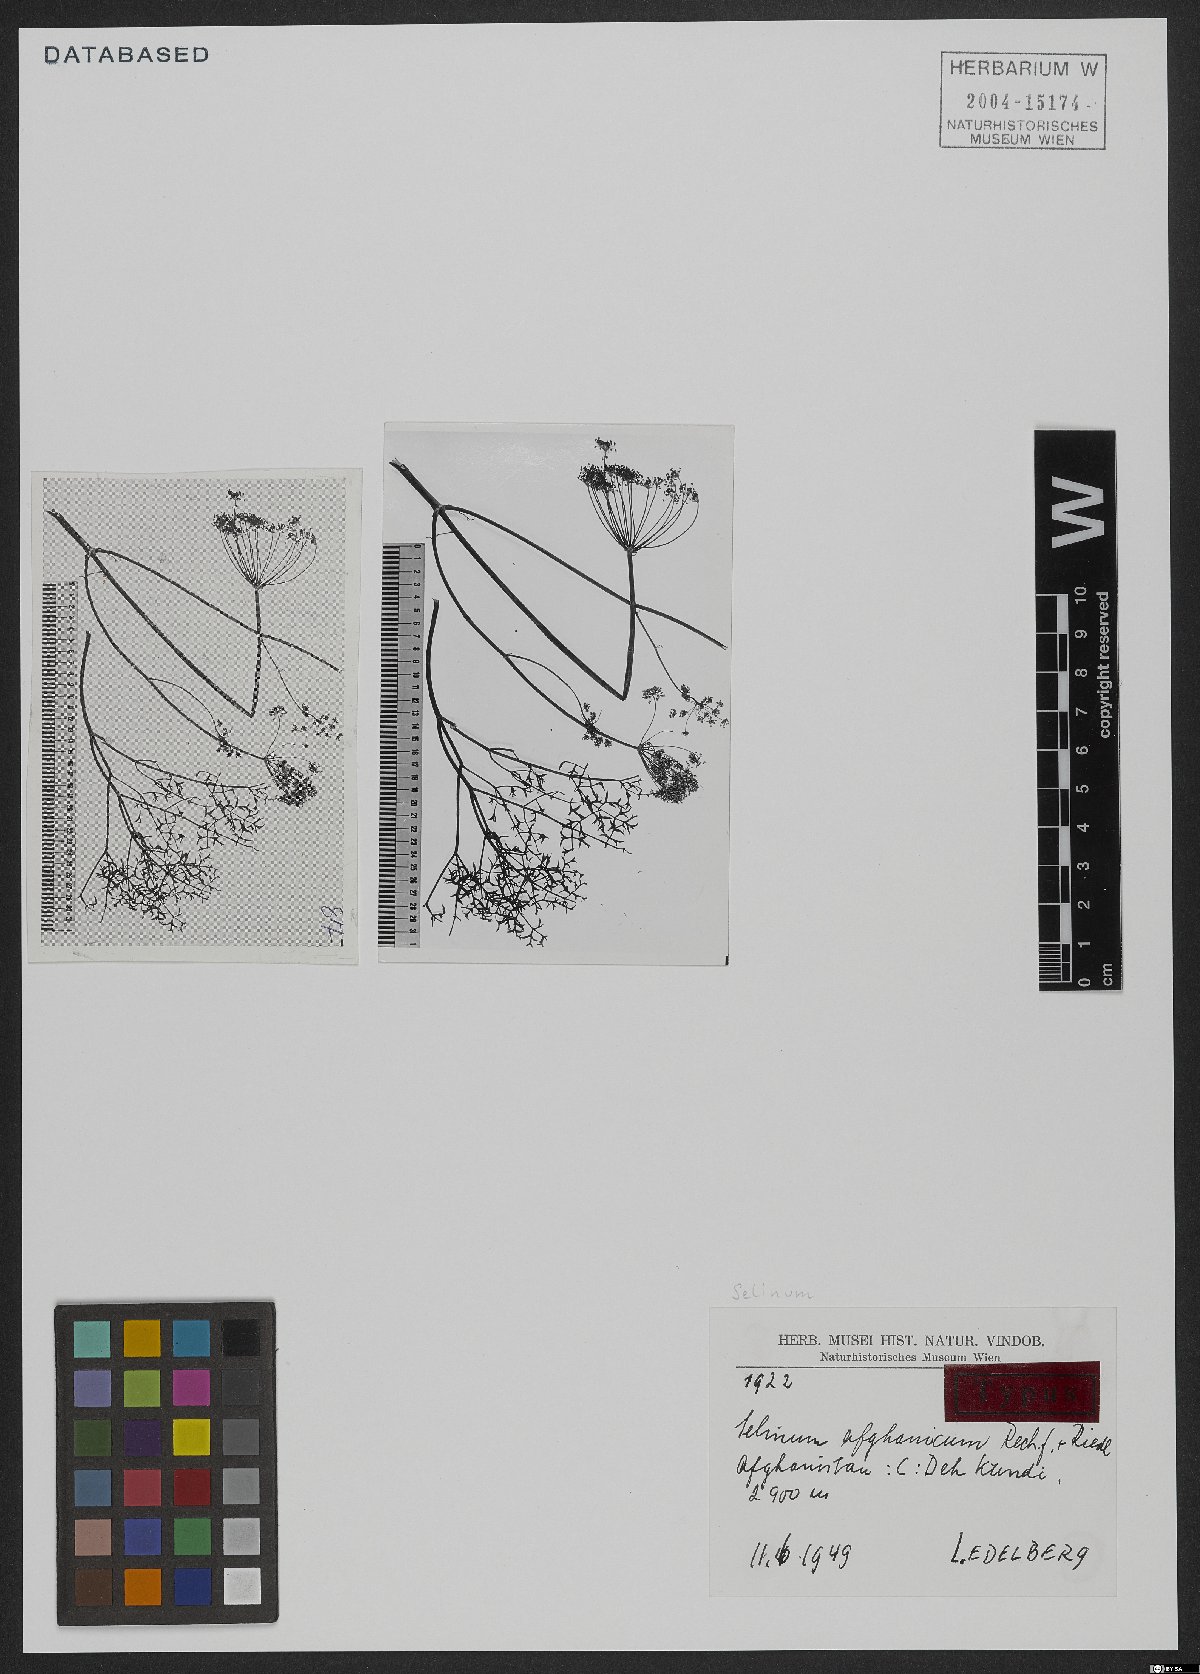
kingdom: Plantae
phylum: Tracheophyta
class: Magnoliopsida
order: Apiales
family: Apiaceae
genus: Cephalopodum
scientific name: Cephalopodum afghanicum
